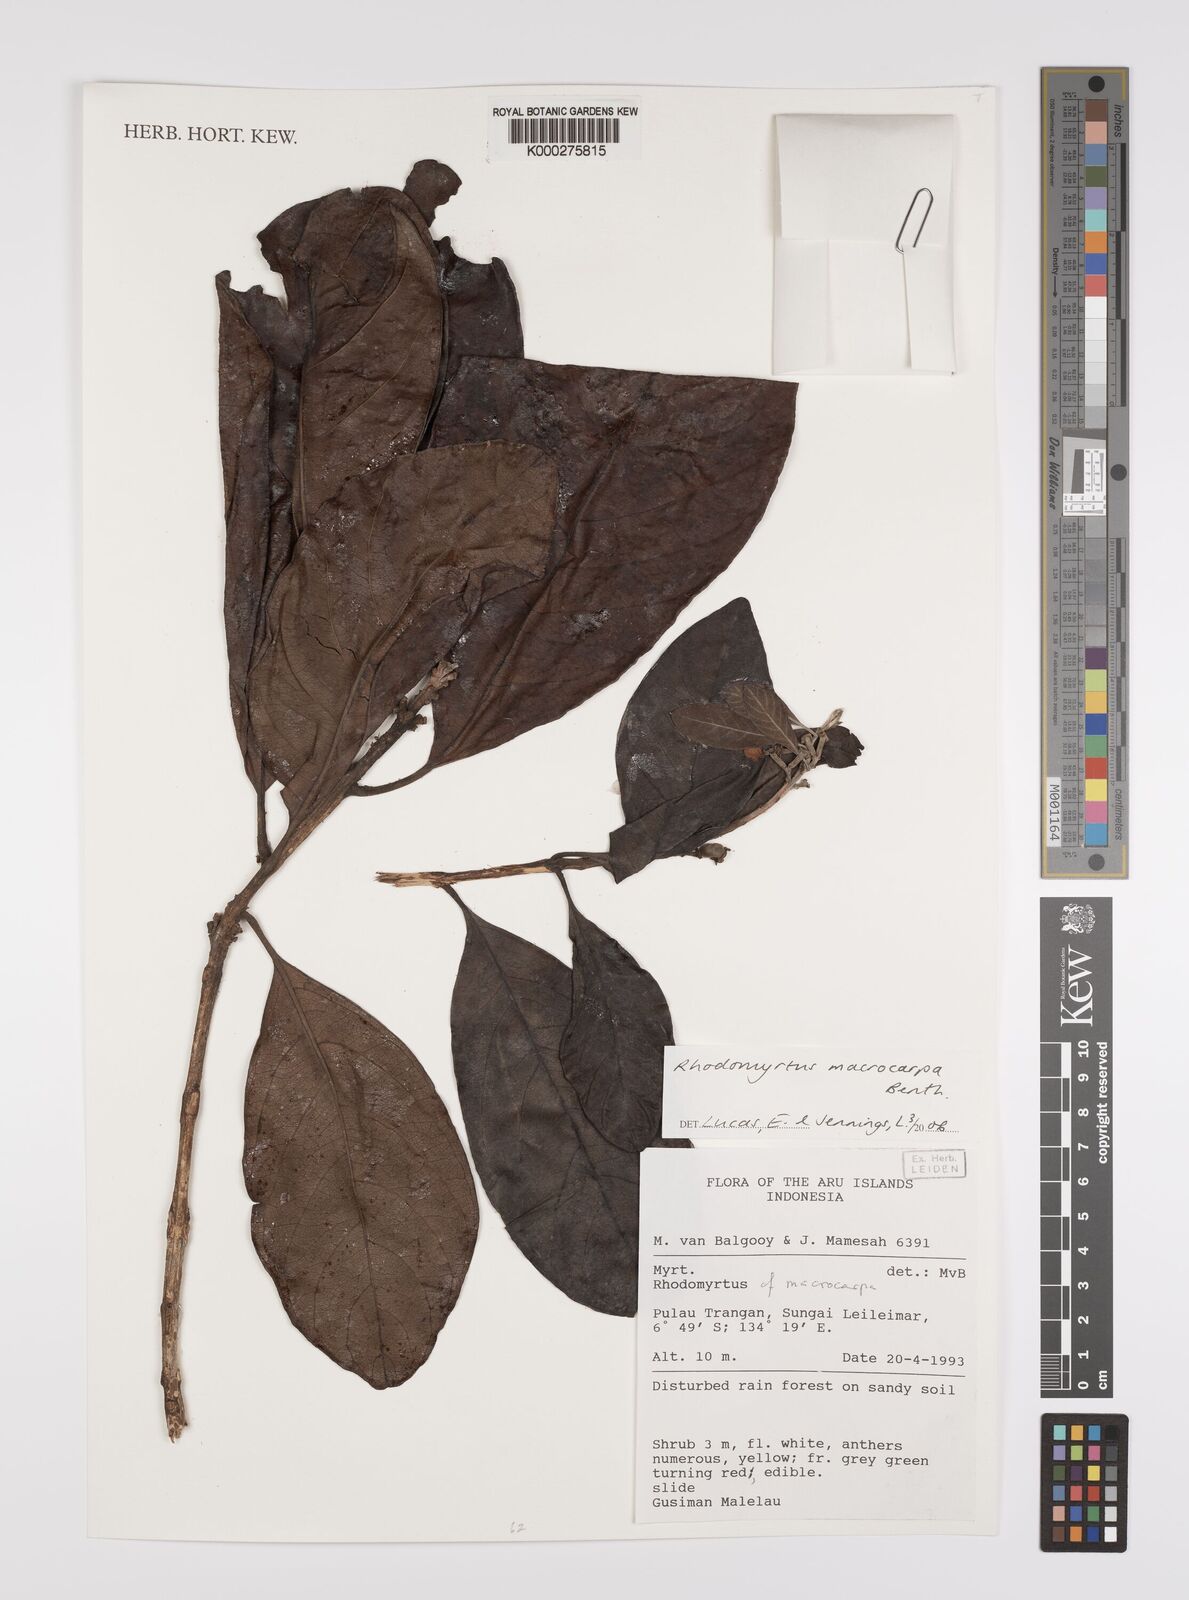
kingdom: Plantae
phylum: Tracheophyta
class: Magnoliopsida
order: Myrtales
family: Myrtaceae
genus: Rhodomyrtus
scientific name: Rhodomyrtus macrocarpa
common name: Finger-cherry
